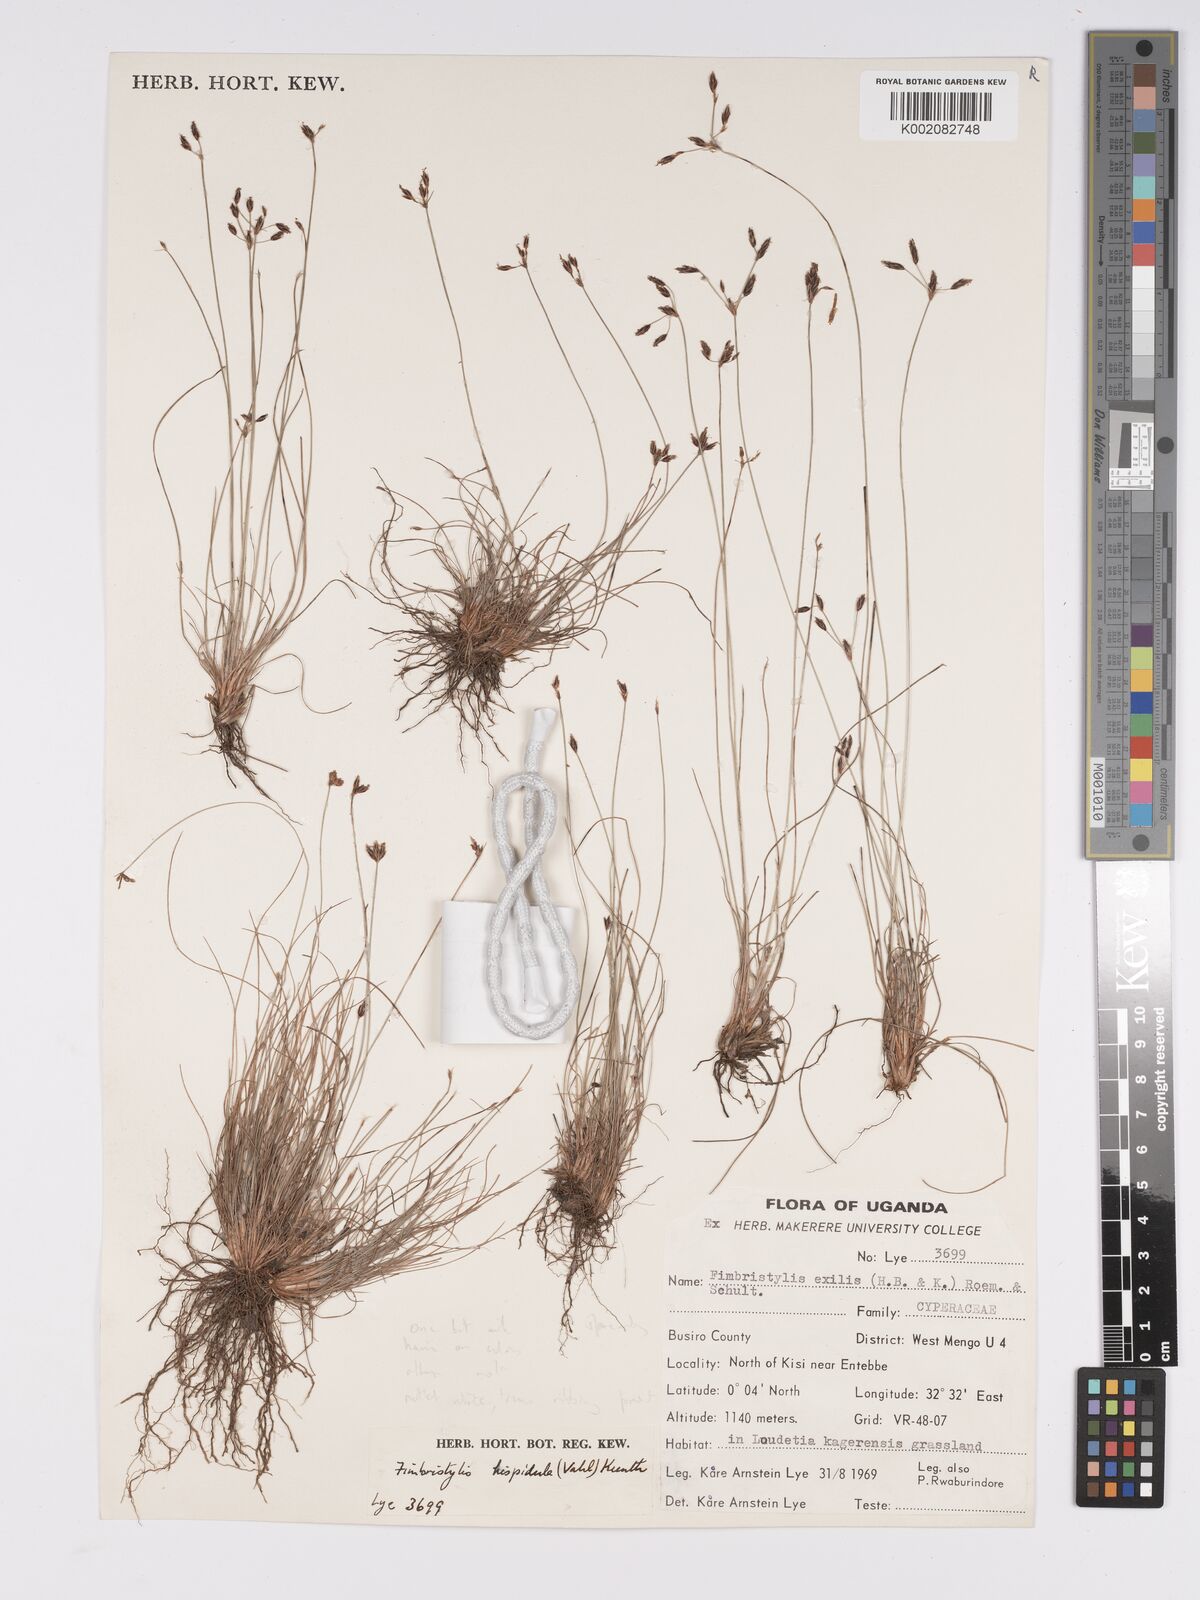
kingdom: Plantae
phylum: Tracheophyta
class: Liliopsida
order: Poales
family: Cyperaceae
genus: Bulbostylis
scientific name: Bulbostylis hispidula
